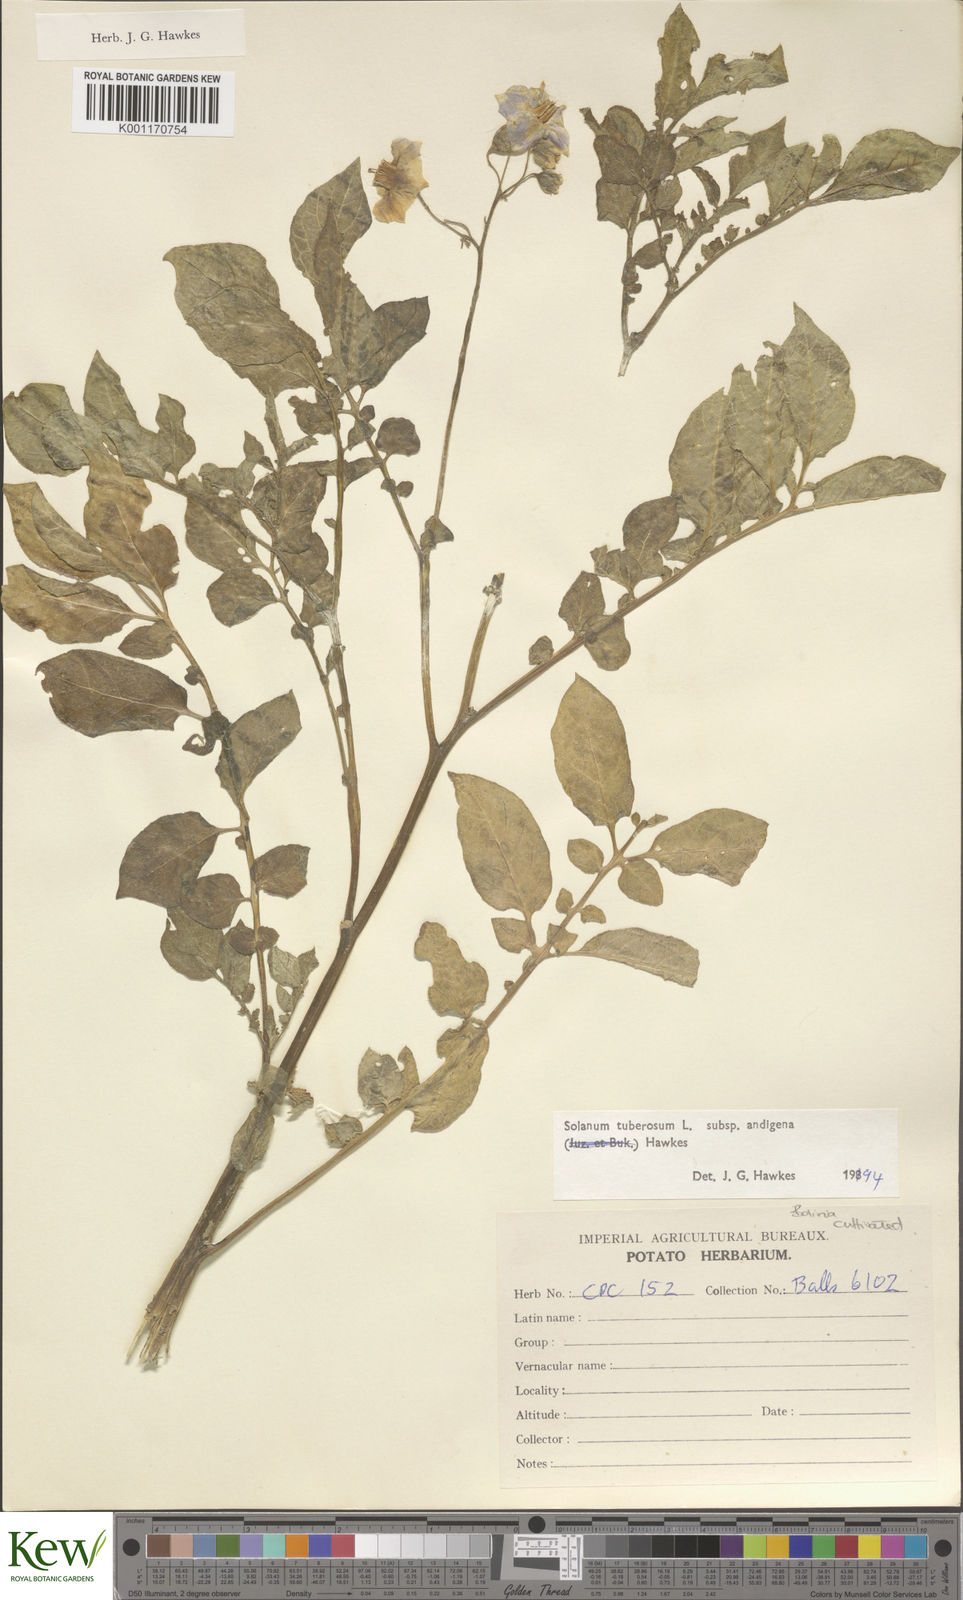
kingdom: Plantae
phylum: Tracheophyta
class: Magnoliopsida
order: Solanales
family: Solanaceae
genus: Solanum
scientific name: Solanum tuberosum
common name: Potato
